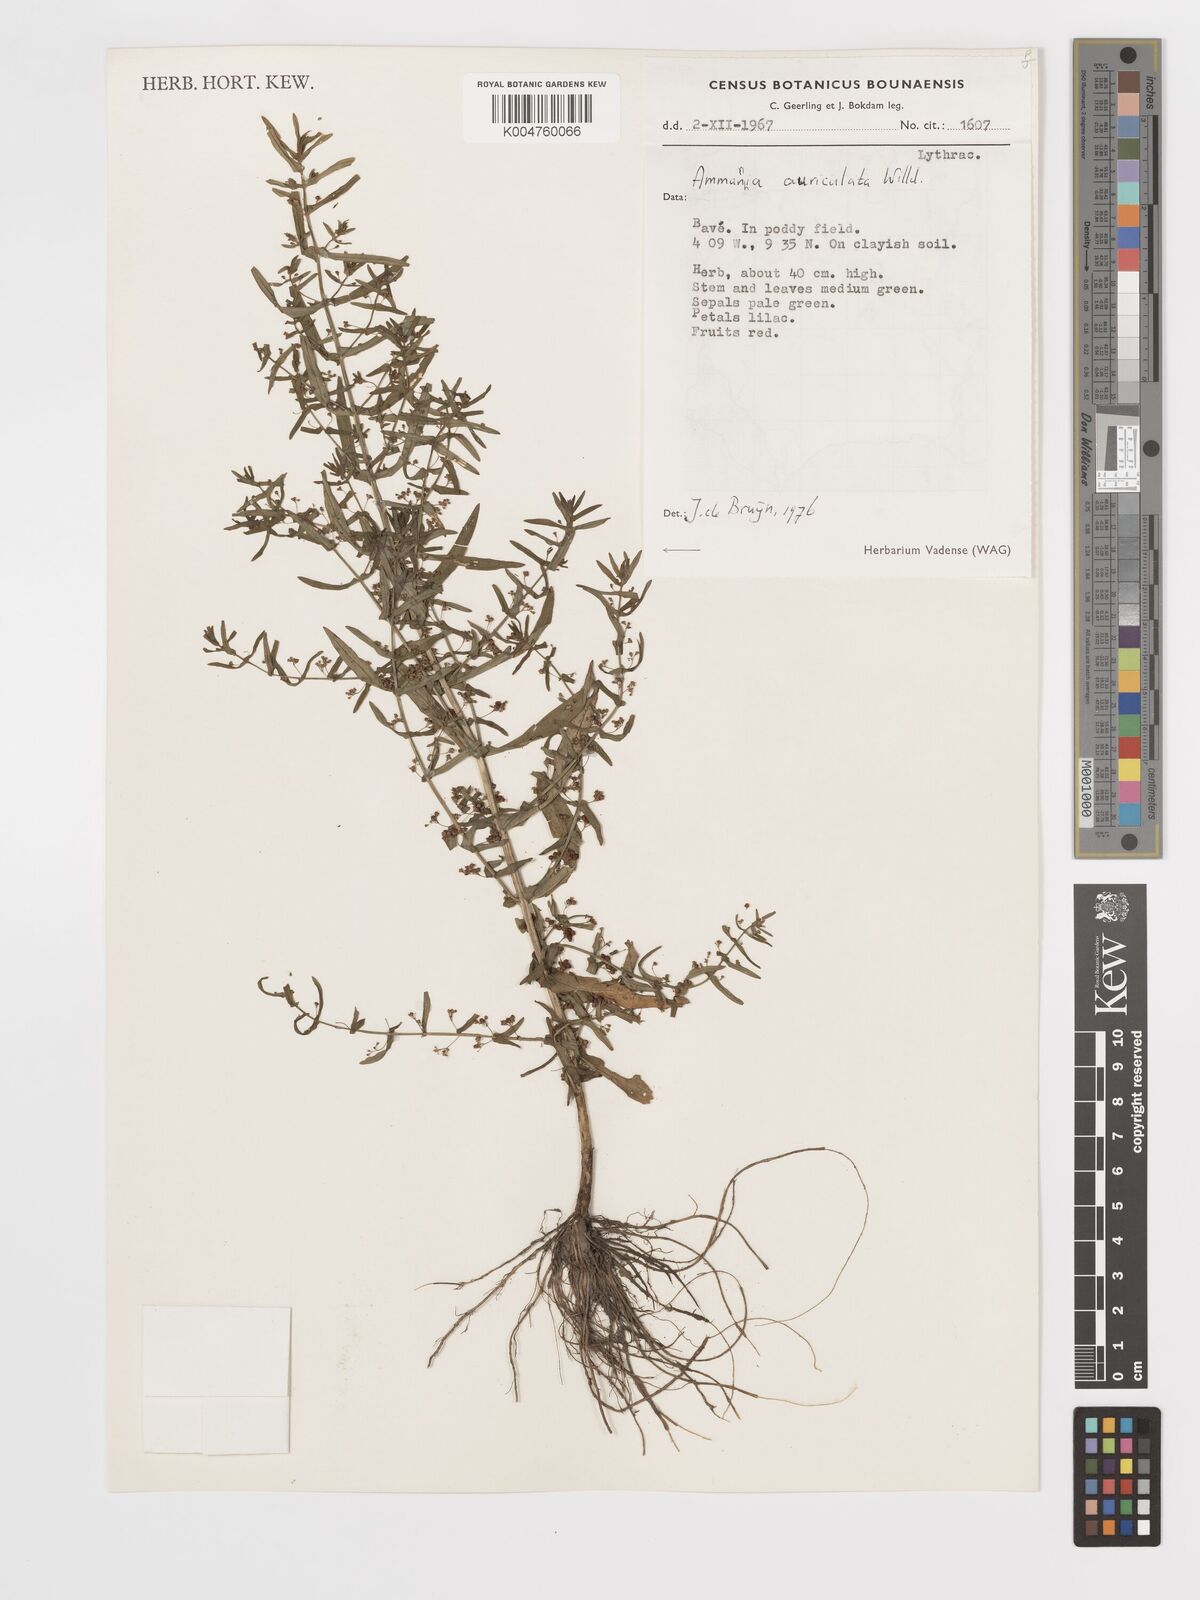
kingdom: Plantae
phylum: Tracheophyta
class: Magnoliopsida
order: Myrtales
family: Lythraceae
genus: Ammannia
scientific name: Ammannia auriculata
